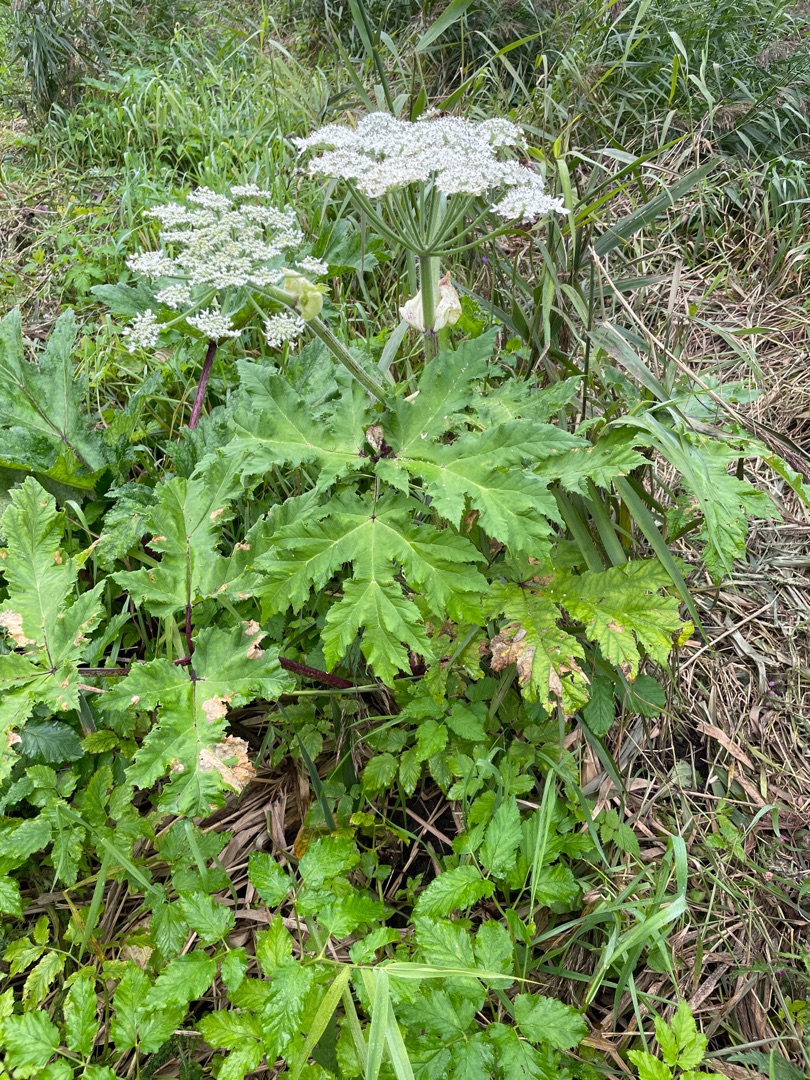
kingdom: Plantae
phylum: Tracheophyta
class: Magnoliopsida
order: Apiales
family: Apiaceae
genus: Heracleum
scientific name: Heracleum mantegazzianum
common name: Kæmpe-bjørneklo
